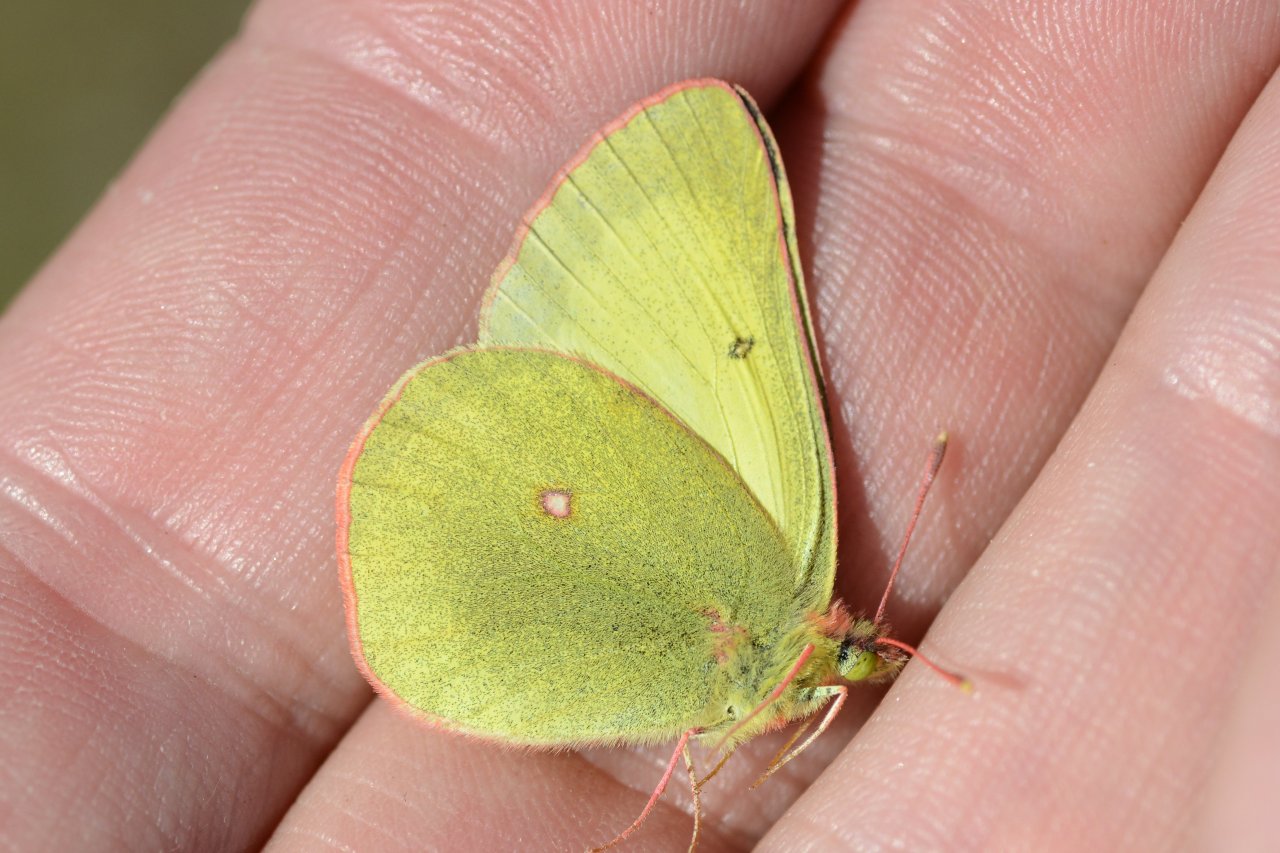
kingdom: Animalia
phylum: Arthropoda
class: Insecta
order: Lepidoptera
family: Pieridae
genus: Colias
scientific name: Colias pelidne
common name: Pelidne Sulphur
